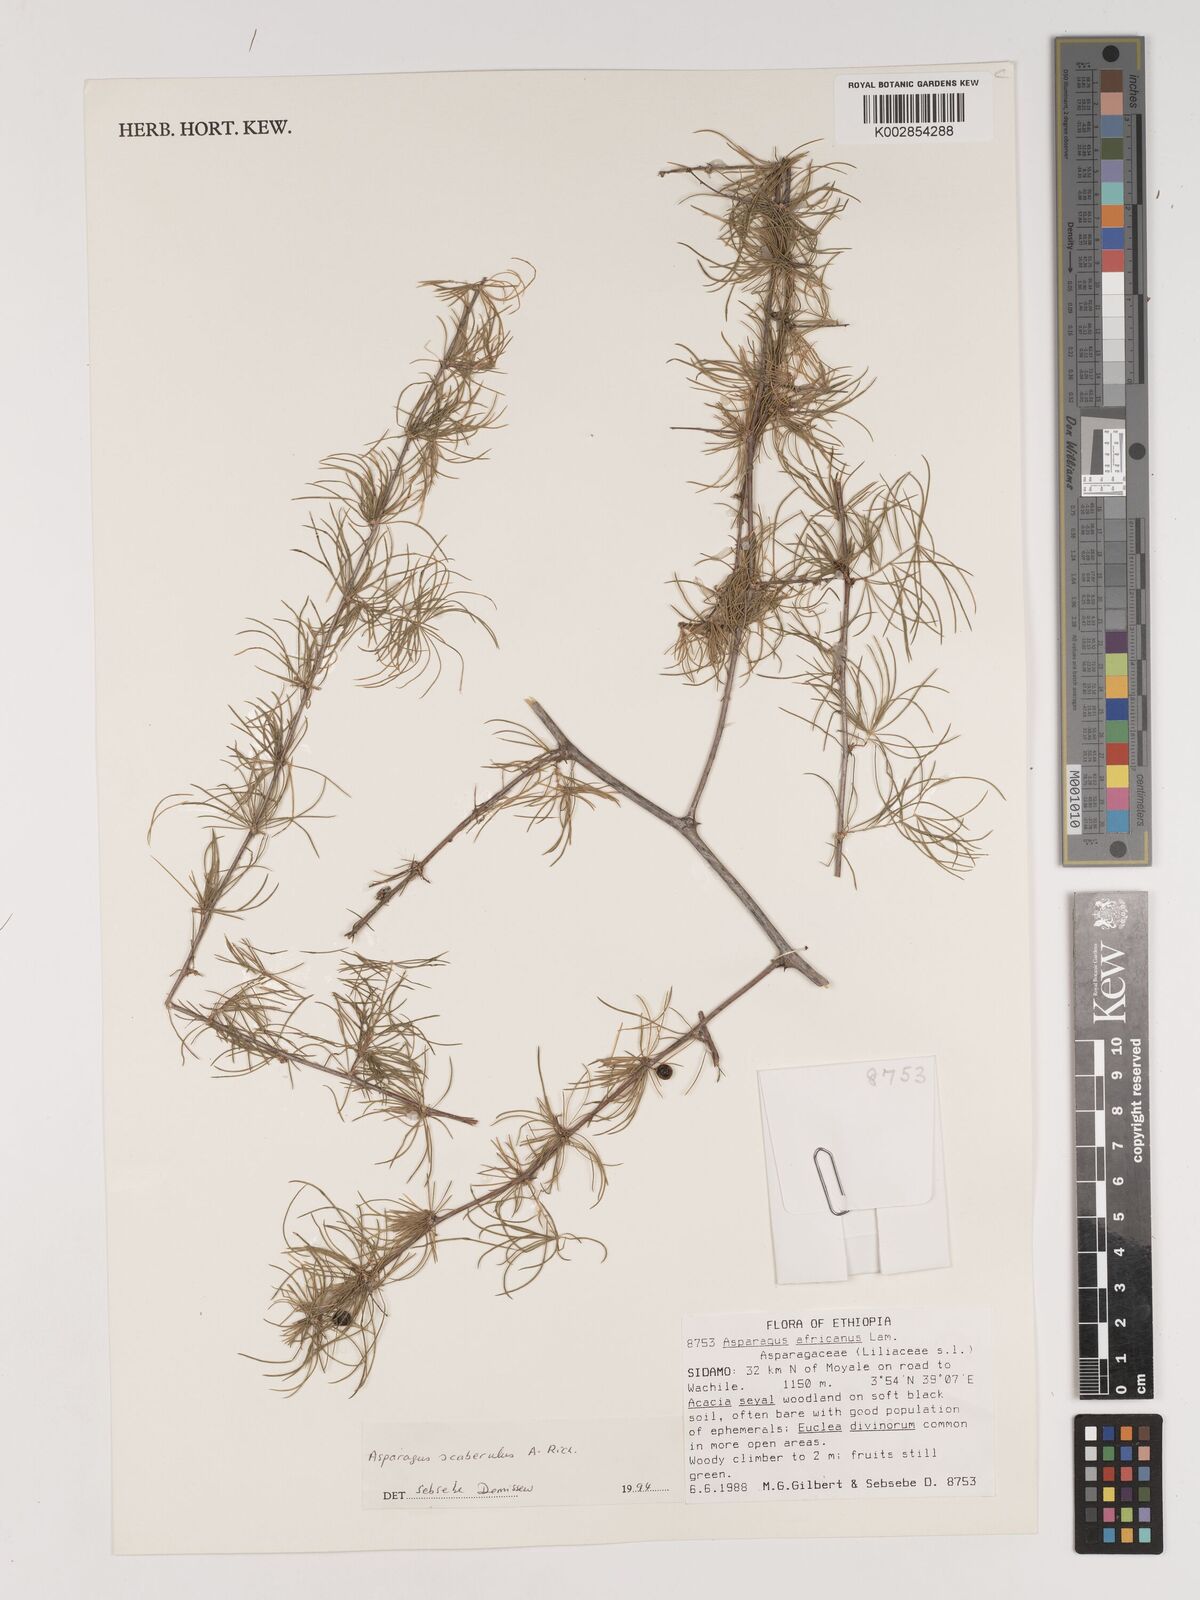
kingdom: Plantae
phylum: Tracheophyta
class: Liliopsida
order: Asparagales
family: Asparagaceae
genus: Asparagus
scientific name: Asparagus africanus
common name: Asparagus-fern
